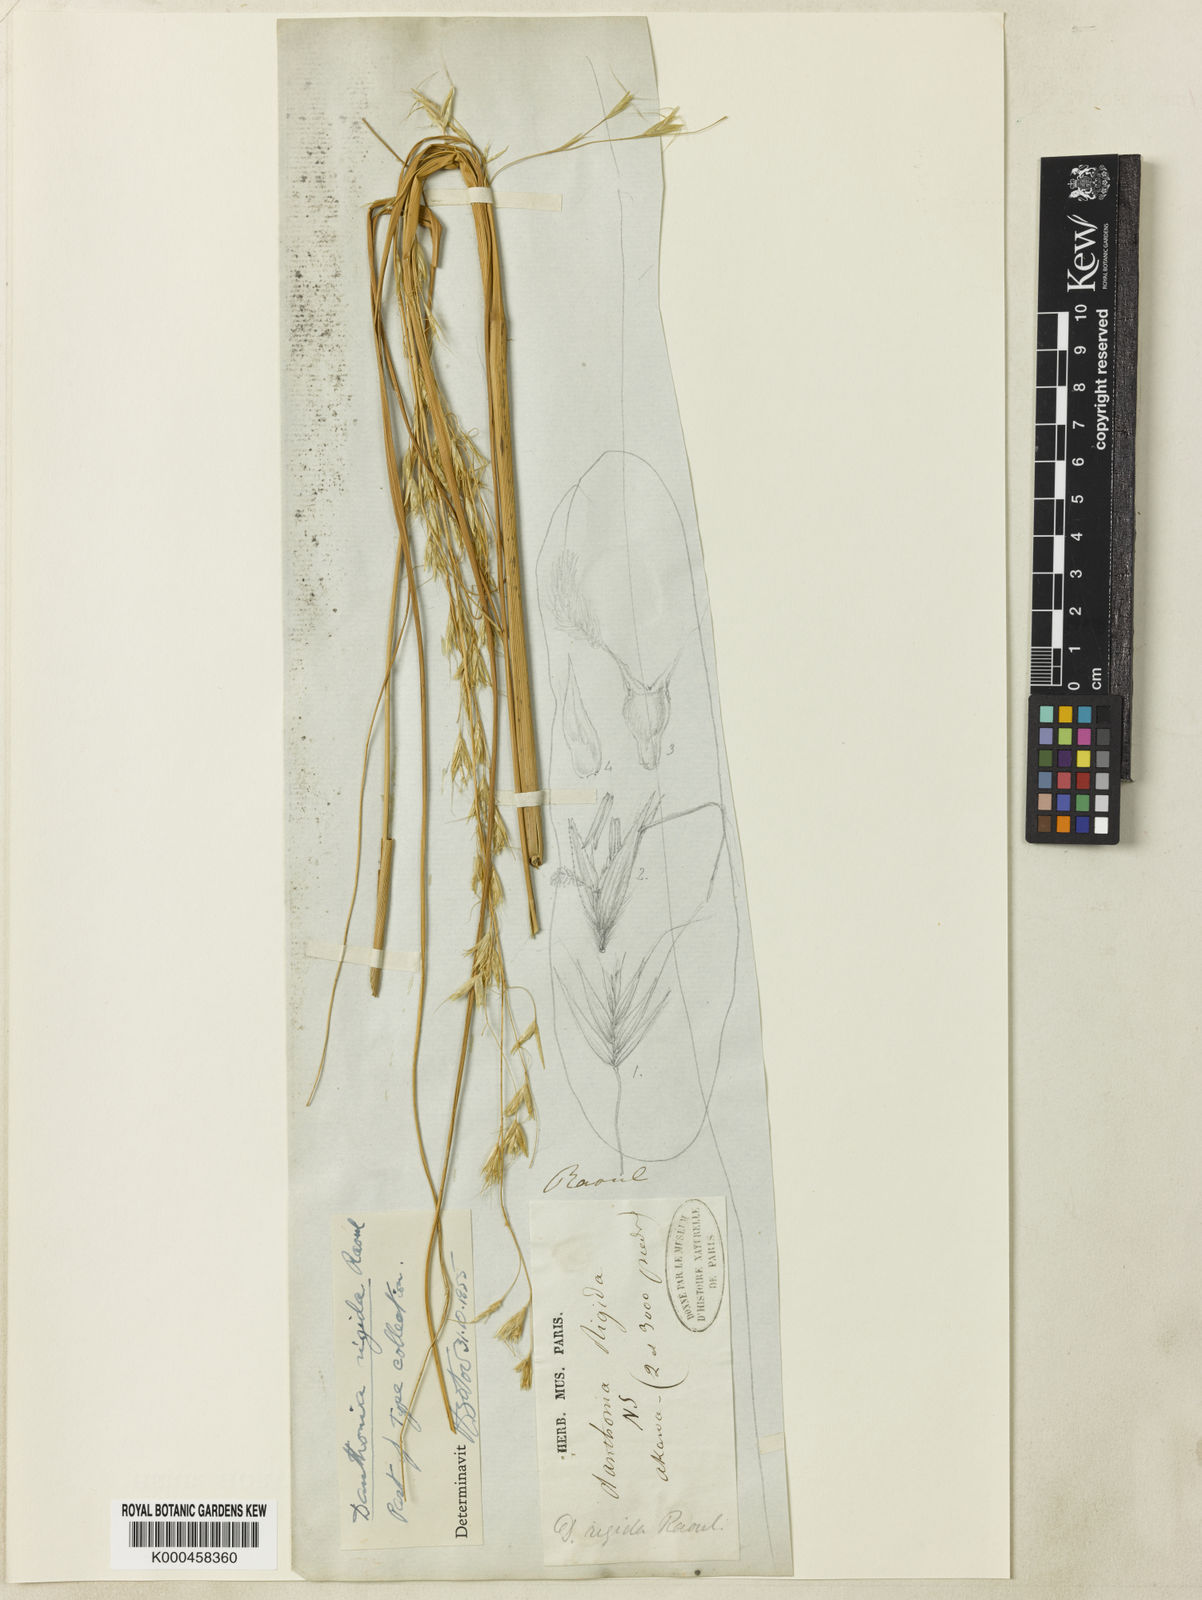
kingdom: Plantae
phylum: Tracheophyta
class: Liliopsida
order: Poales
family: Poaceae
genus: Chionochloa
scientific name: Chionochloa rigida
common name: Narrow leaved snow tussock
